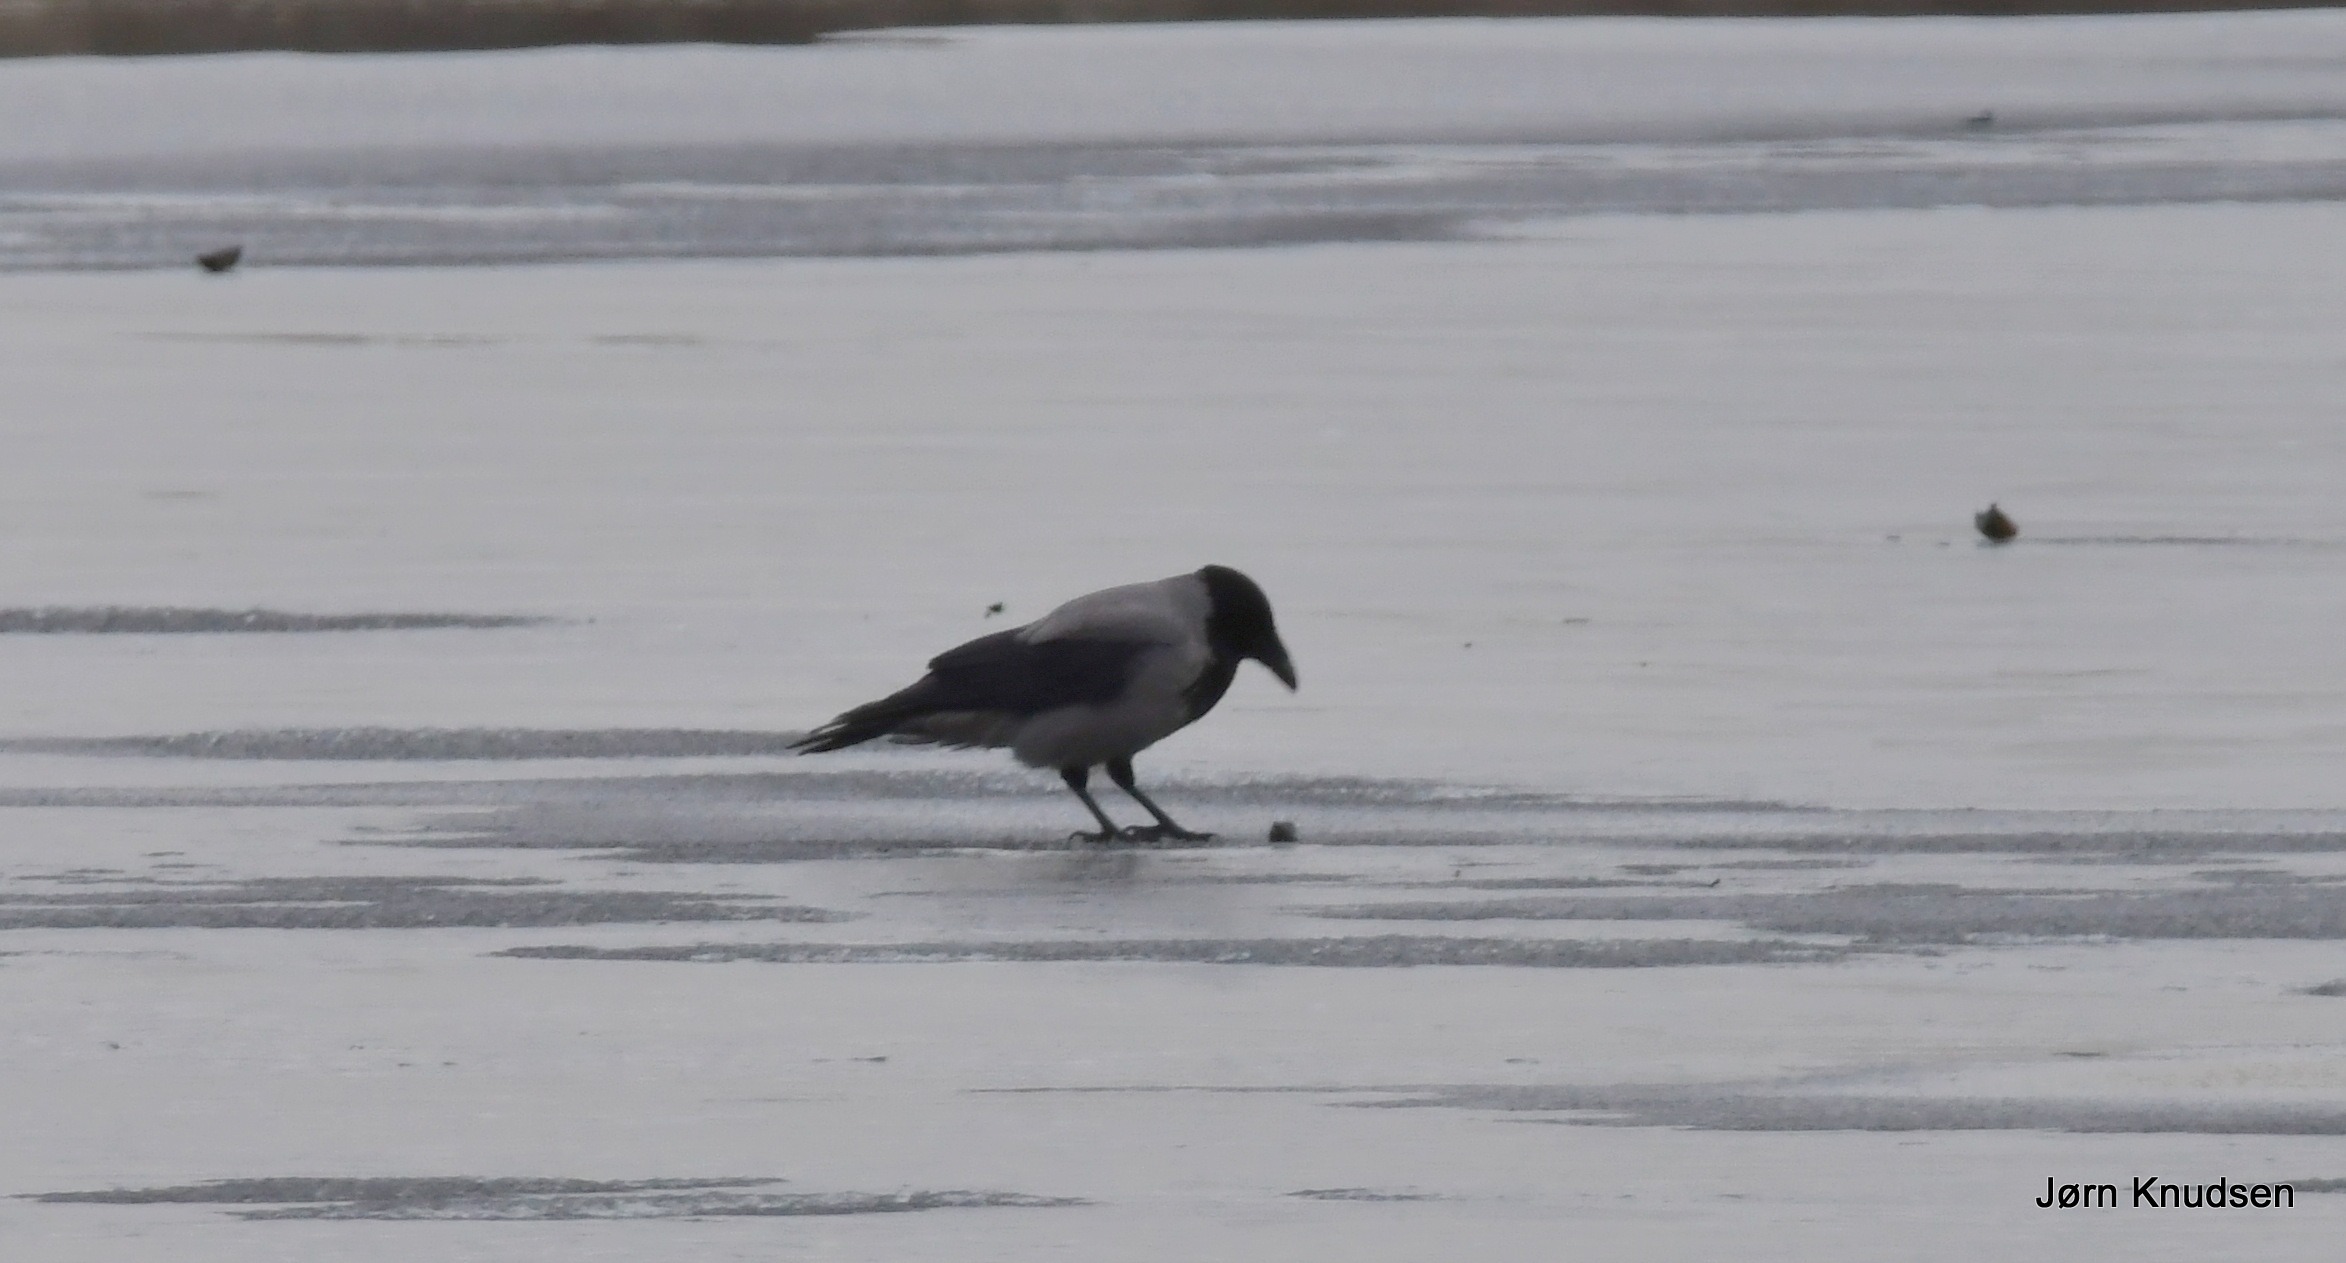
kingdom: Animalia
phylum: Chordata
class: Aves
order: Passeriformes
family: Corvidae
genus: Corvus
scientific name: Corvus cornix
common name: Gråkrage
